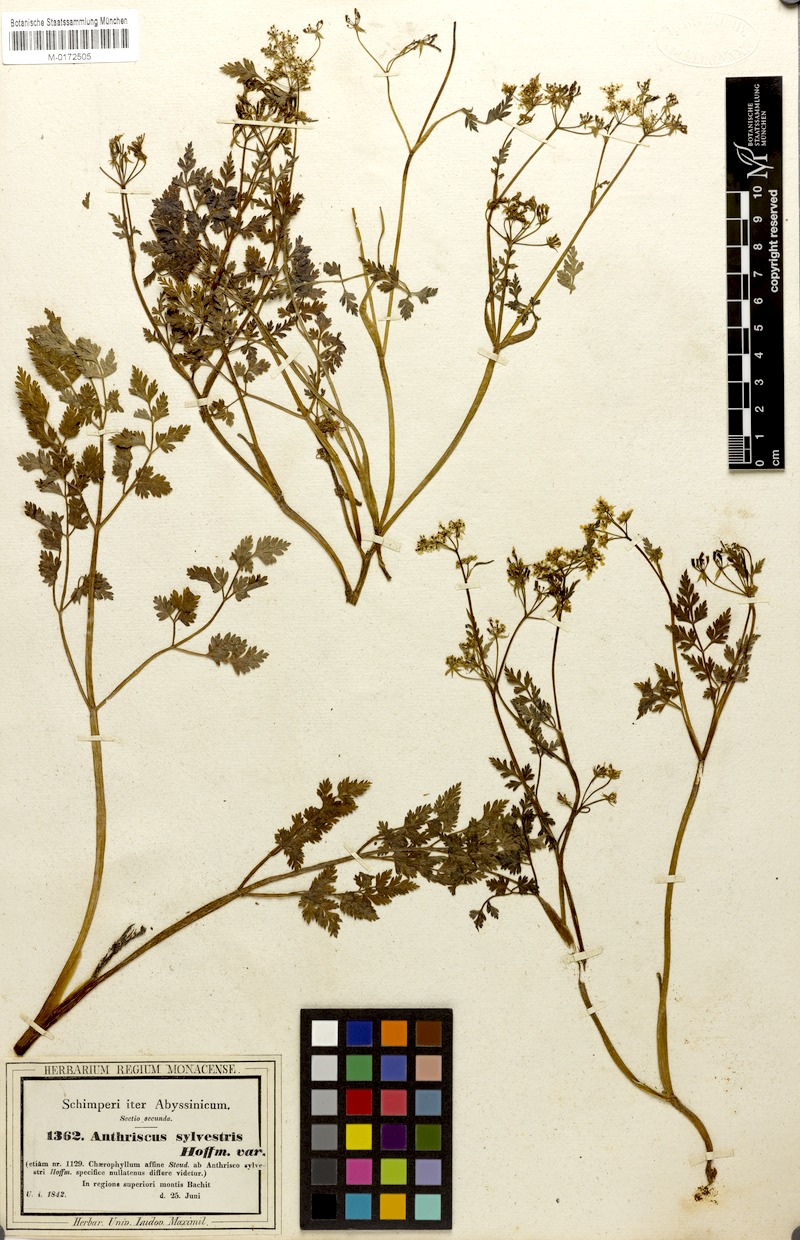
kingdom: Plantae
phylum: Tracheophyta
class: Magnoliopsida
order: Apiales
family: Apiaceae
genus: Anthriscus
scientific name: Anthriscus sylvestris
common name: Cow parsley
